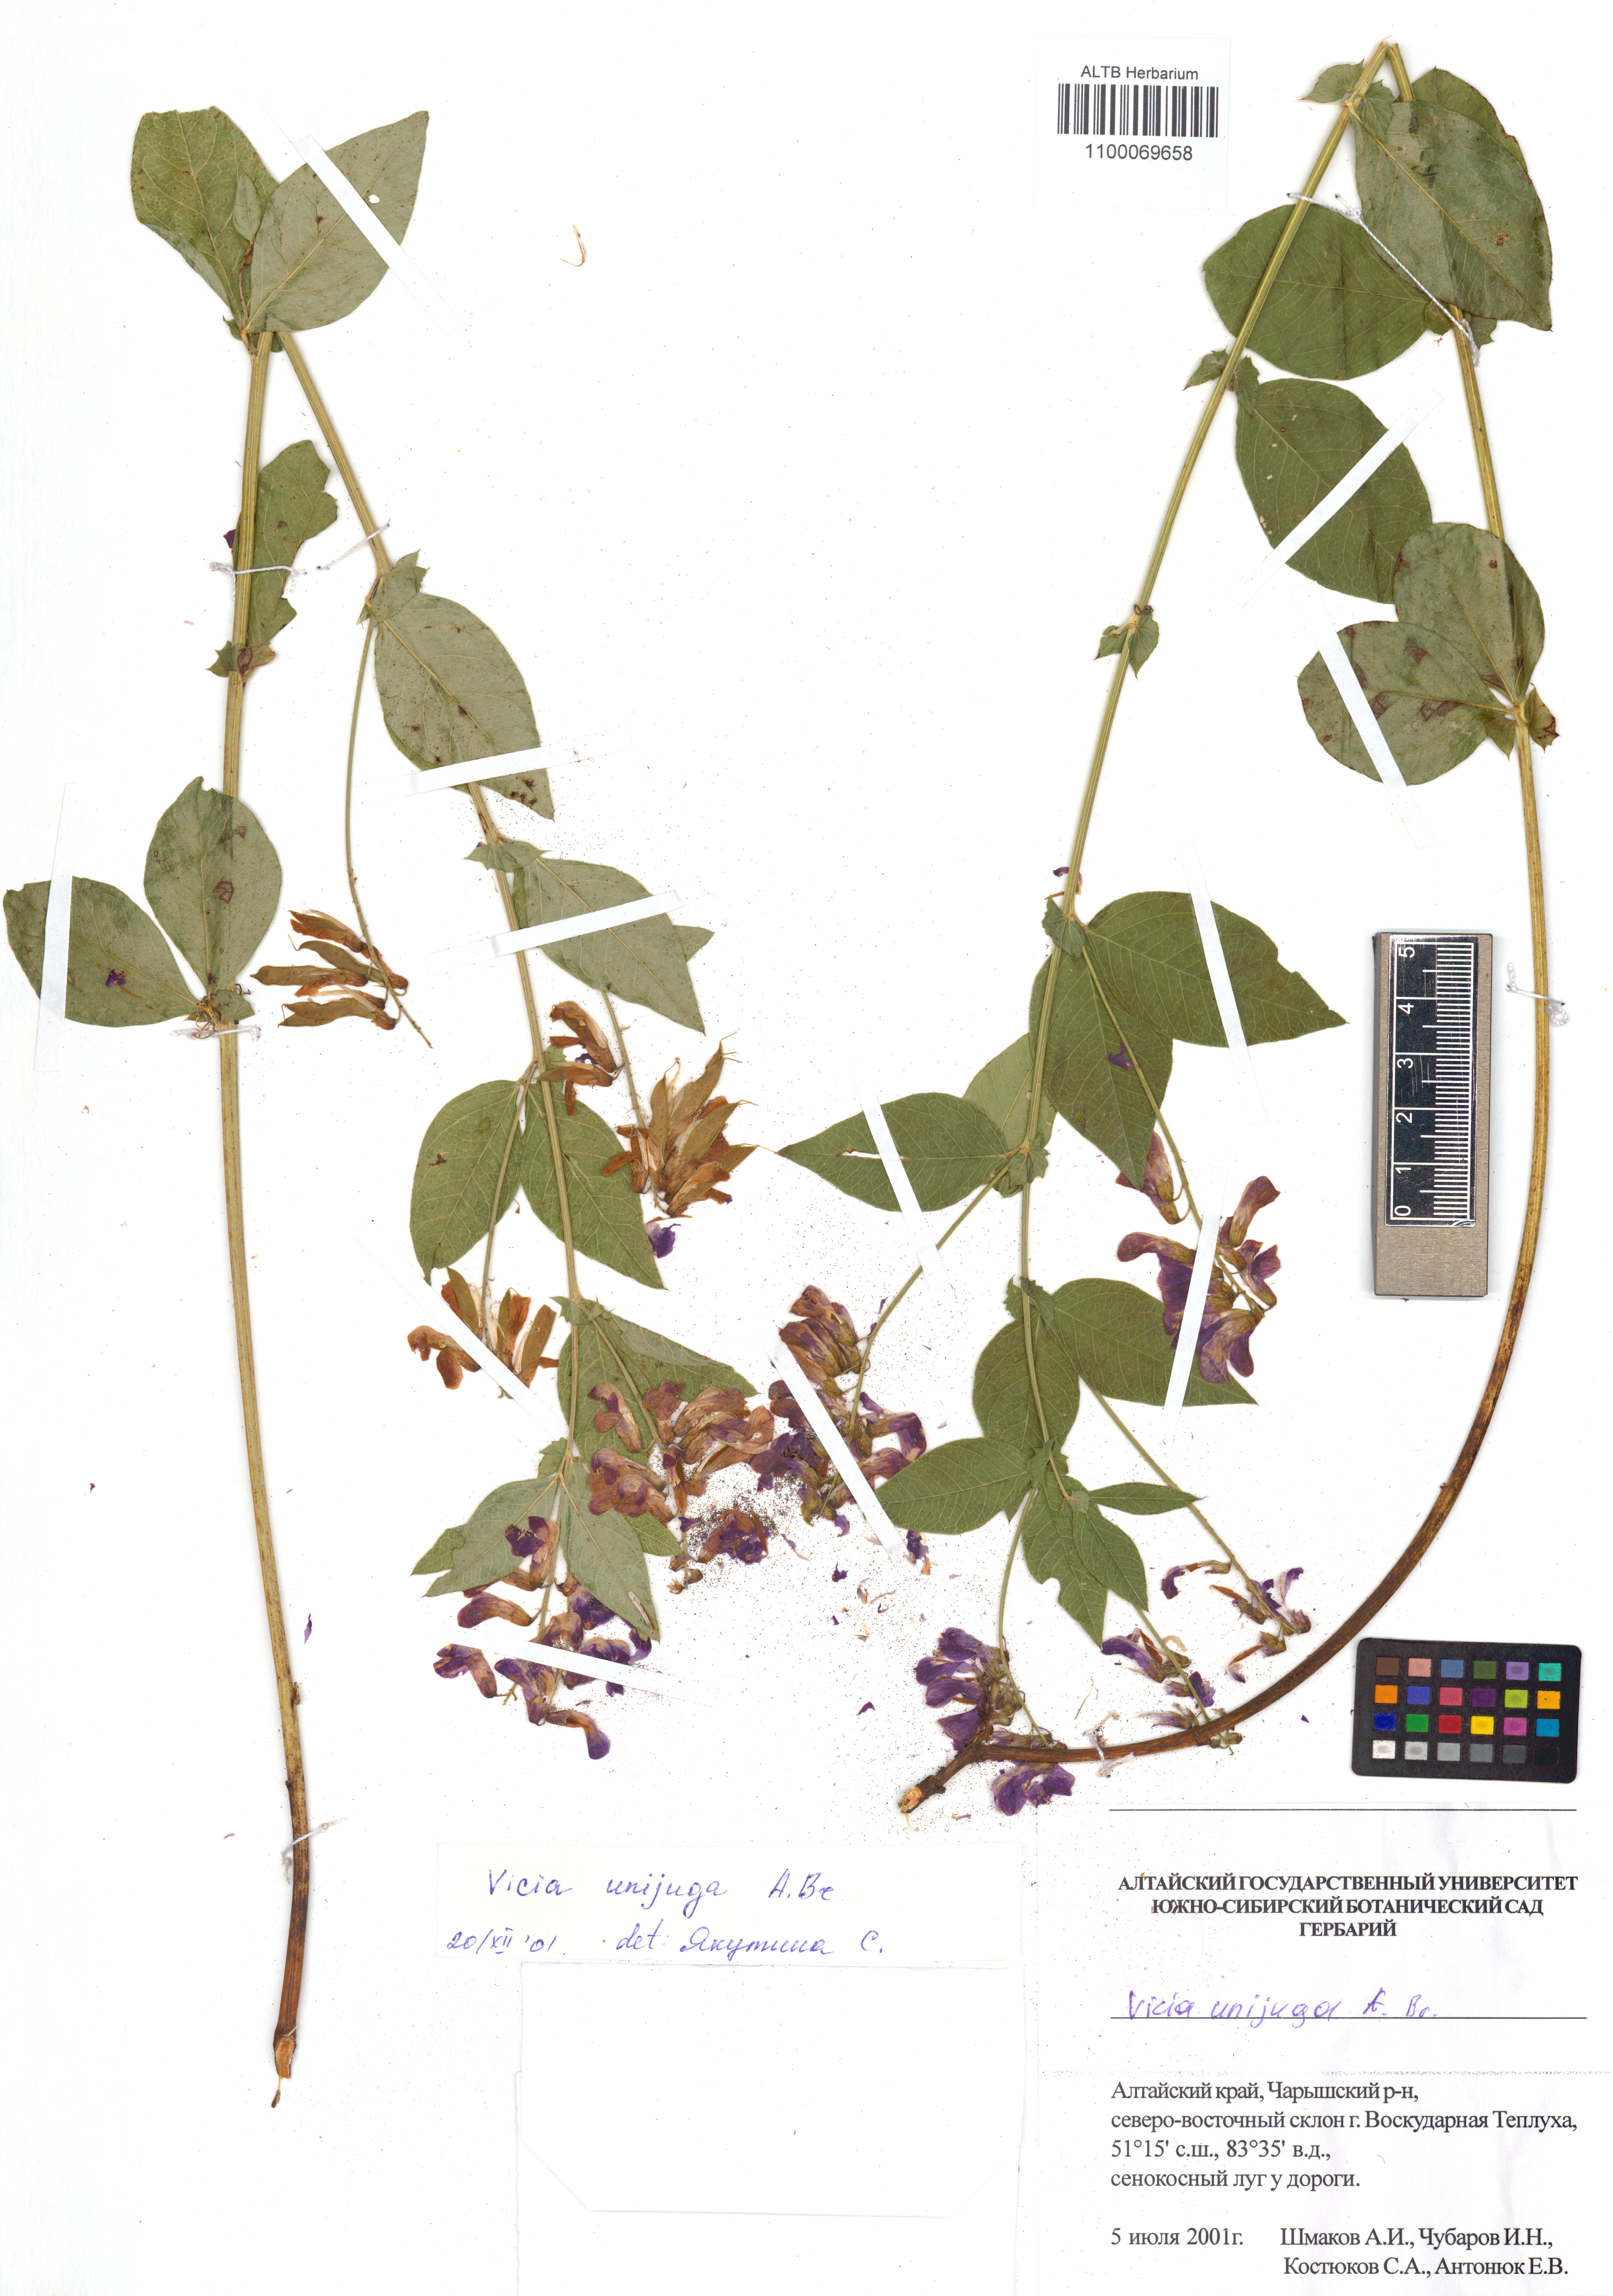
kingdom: Plantae
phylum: Tracheophyta
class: Magnoliopsida
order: Fabales
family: Fabaceae
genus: Vicia
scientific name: Vicia unijuga
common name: Two-leaf vetch
